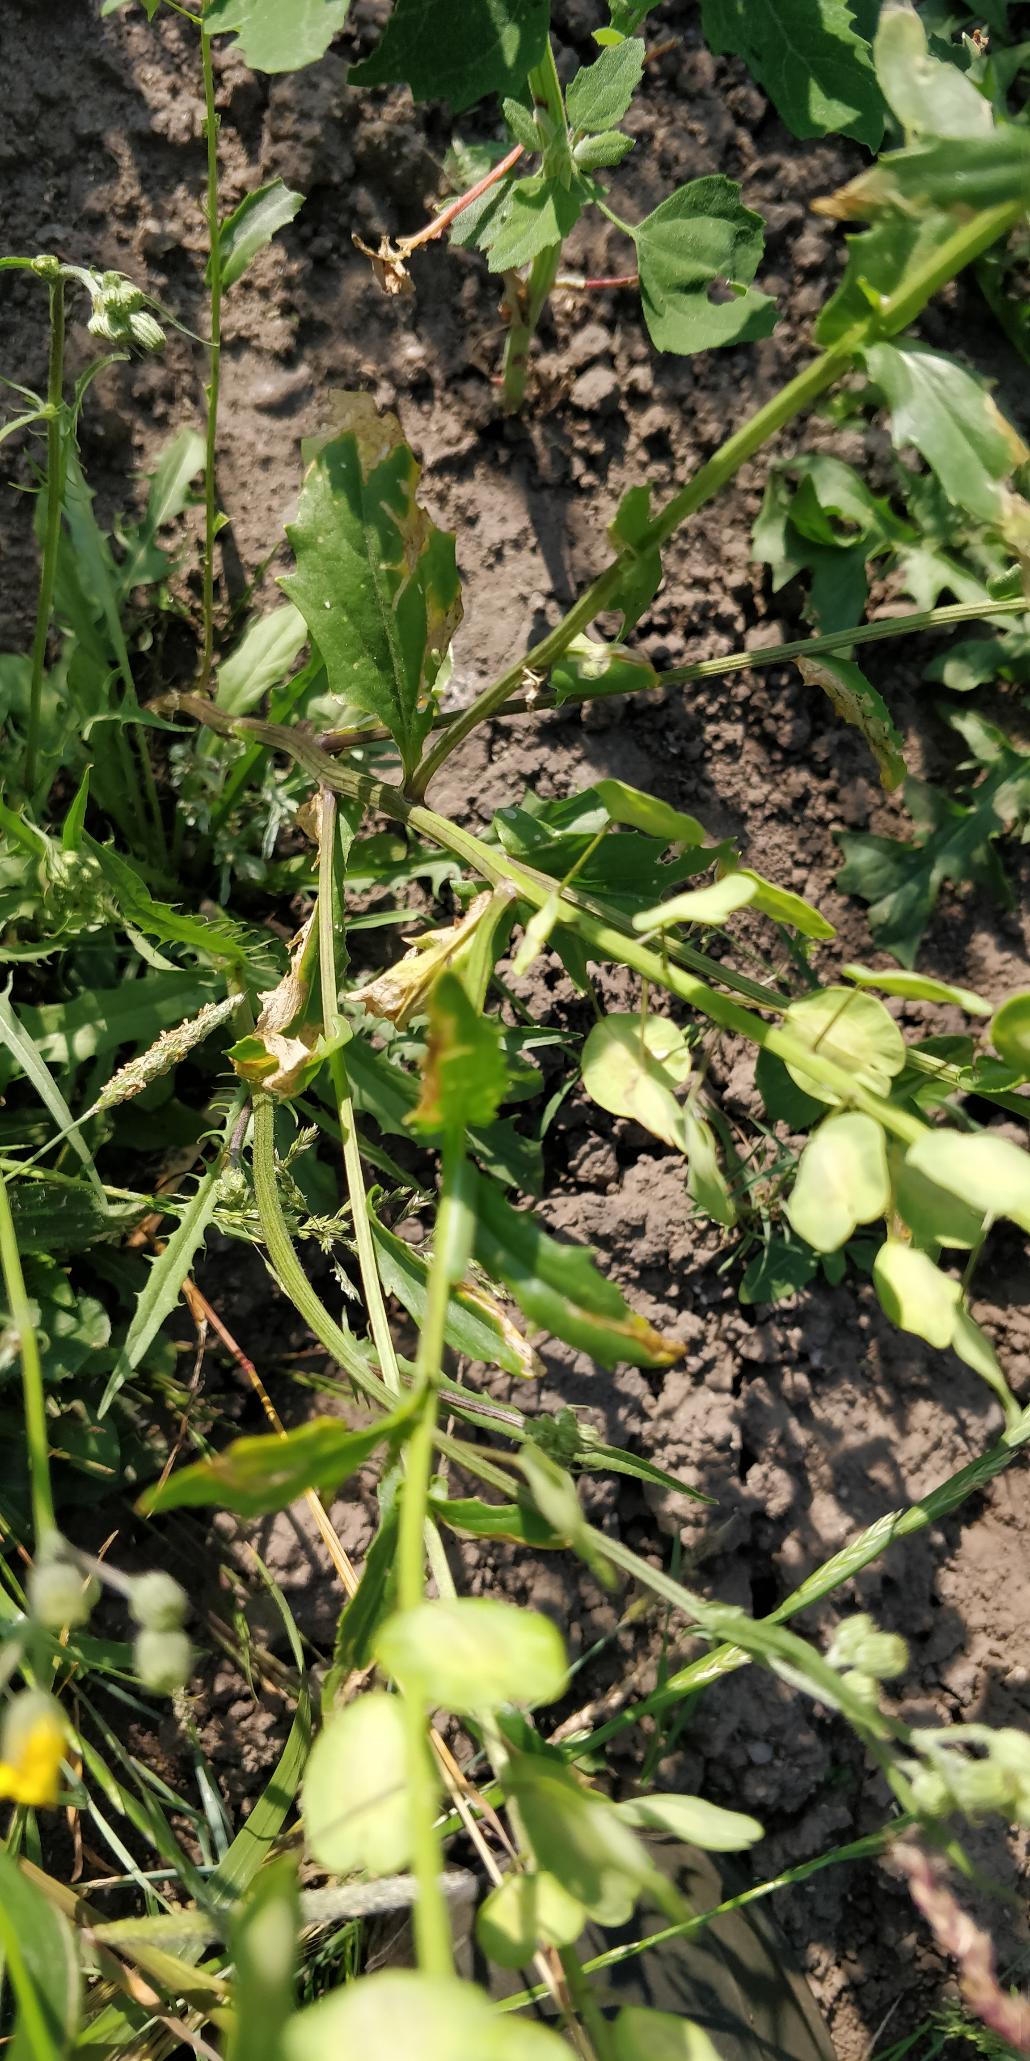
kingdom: Plantae
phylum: Tracheophyta
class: Magnoliopsida
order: Brassicales
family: Brassicaceae
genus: Thlaspi
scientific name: Thlaspi arvense
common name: Almindelig pengeurt
